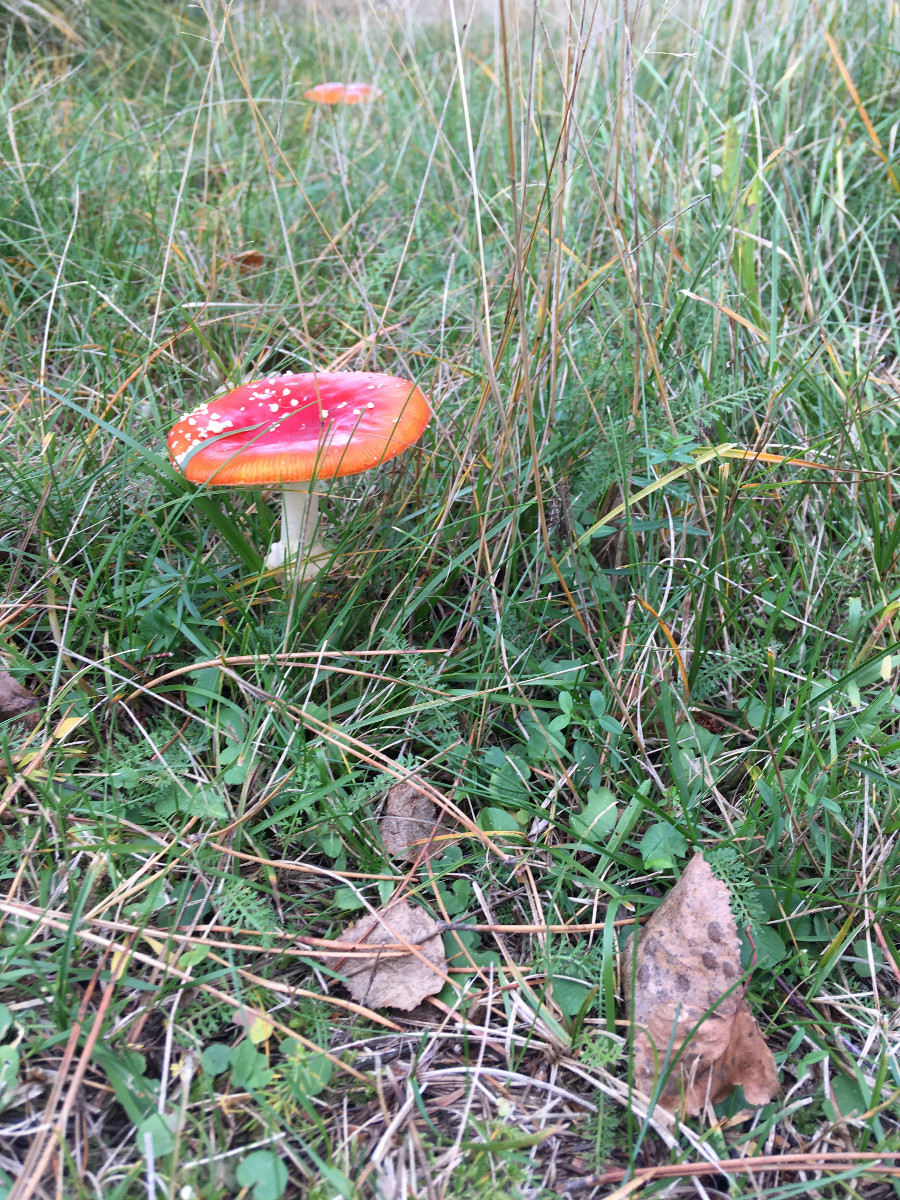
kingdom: Fungi
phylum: Basidiomycota
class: Agaricomycetes
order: Agaricales
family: Amanitaceae
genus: Amanita
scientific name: Amanita muscaria
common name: rød fluesvamp
